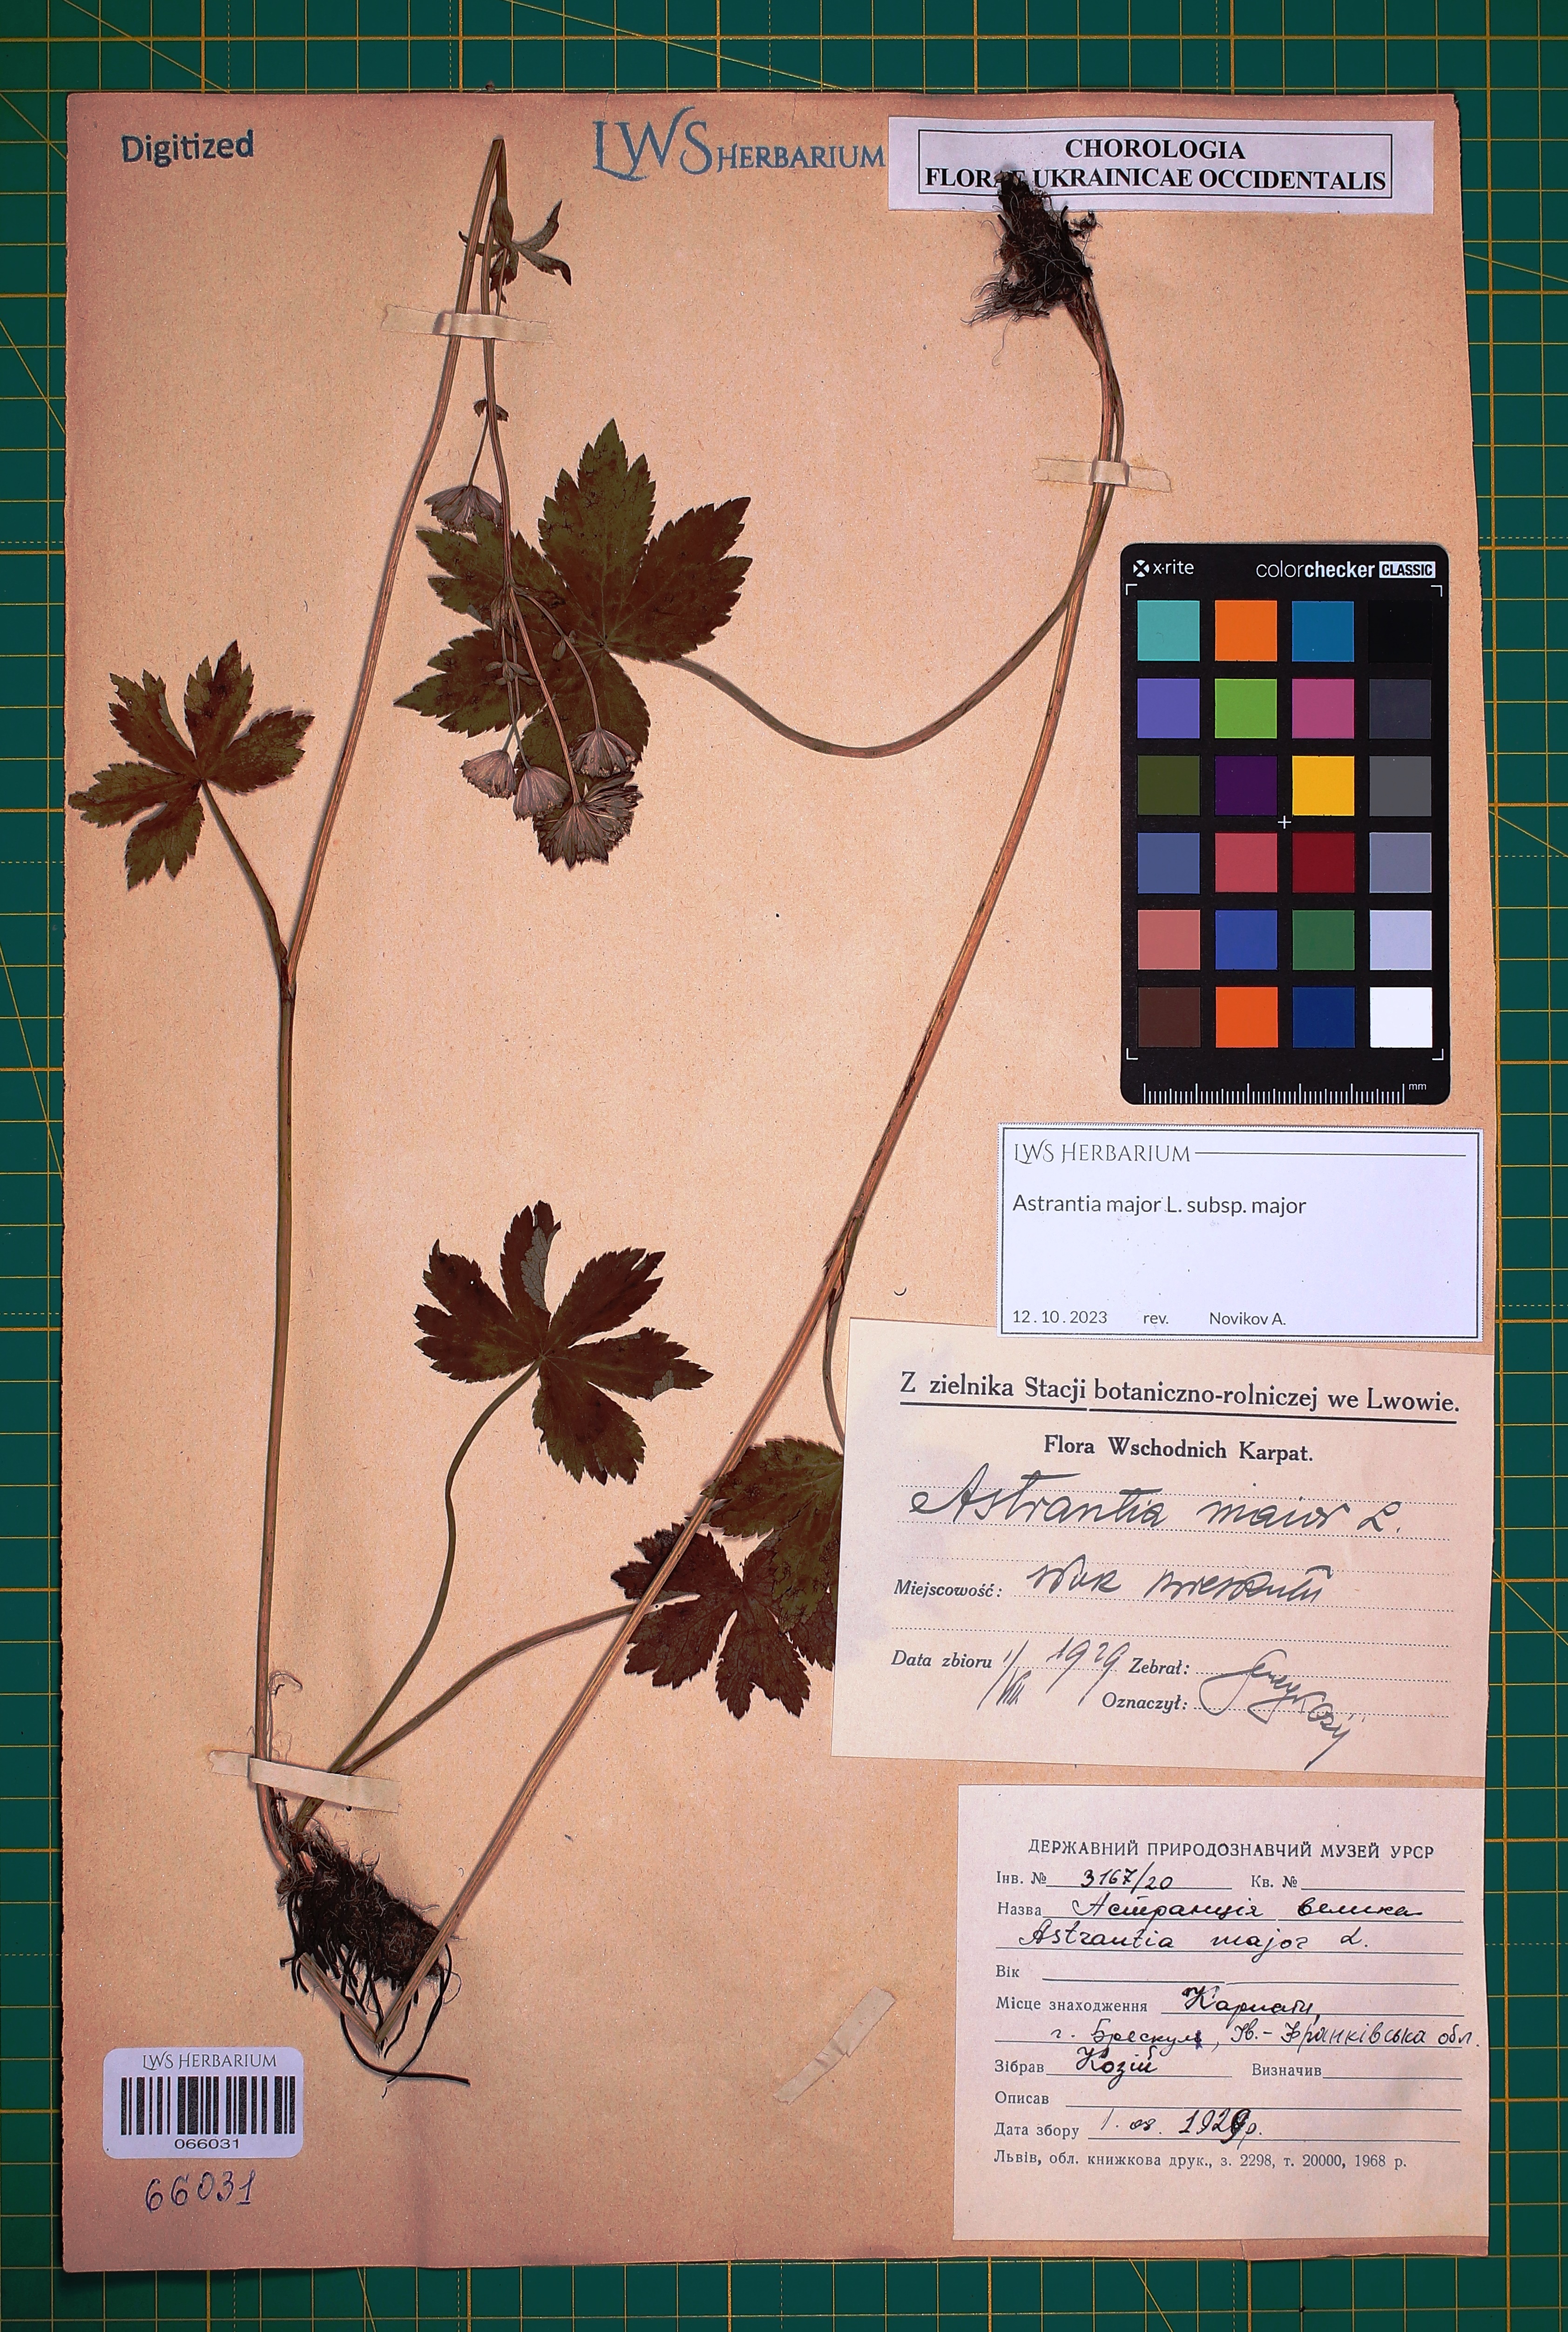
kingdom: Plantae
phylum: Tracheophyta
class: Magnoliopsida
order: Apiales
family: Apiaceae
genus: Astrantia
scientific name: Astrantia major
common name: Greater masterwort
